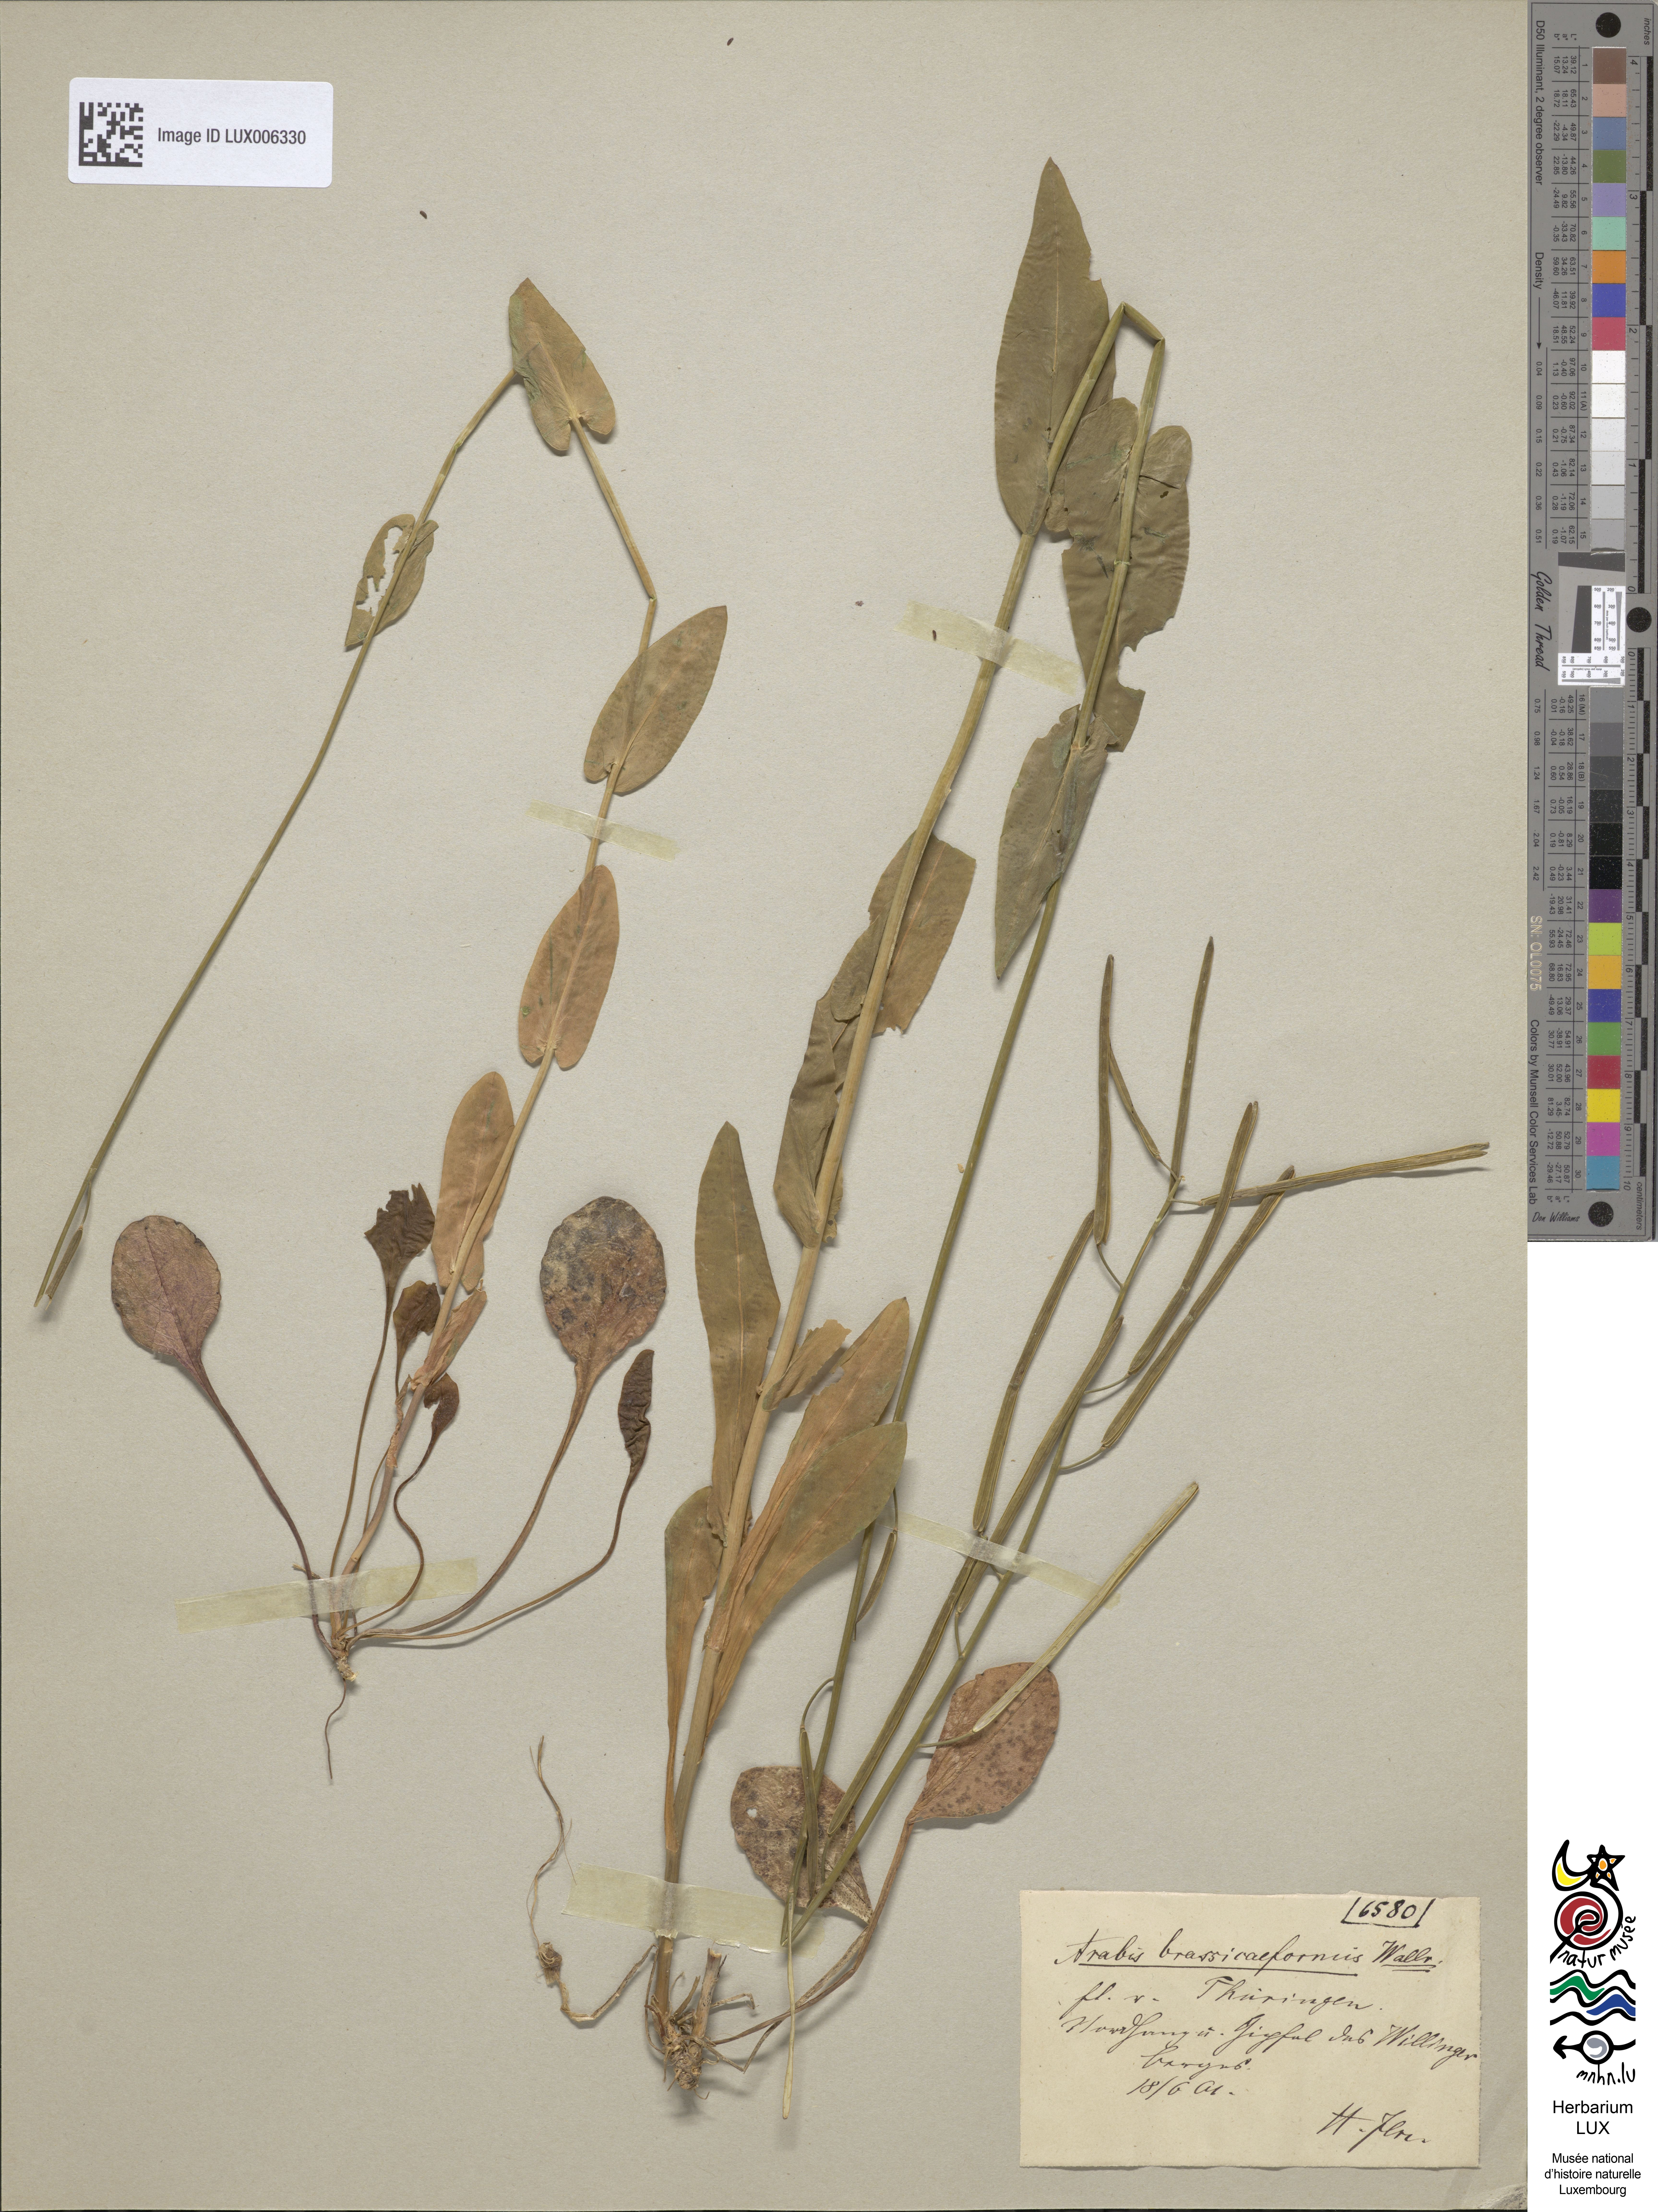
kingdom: Plantae
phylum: Tracheophyta
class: Magnoliopsida
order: Brassicales
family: Brassicaceae
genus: Fourraea
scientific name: Fourraea alpina
